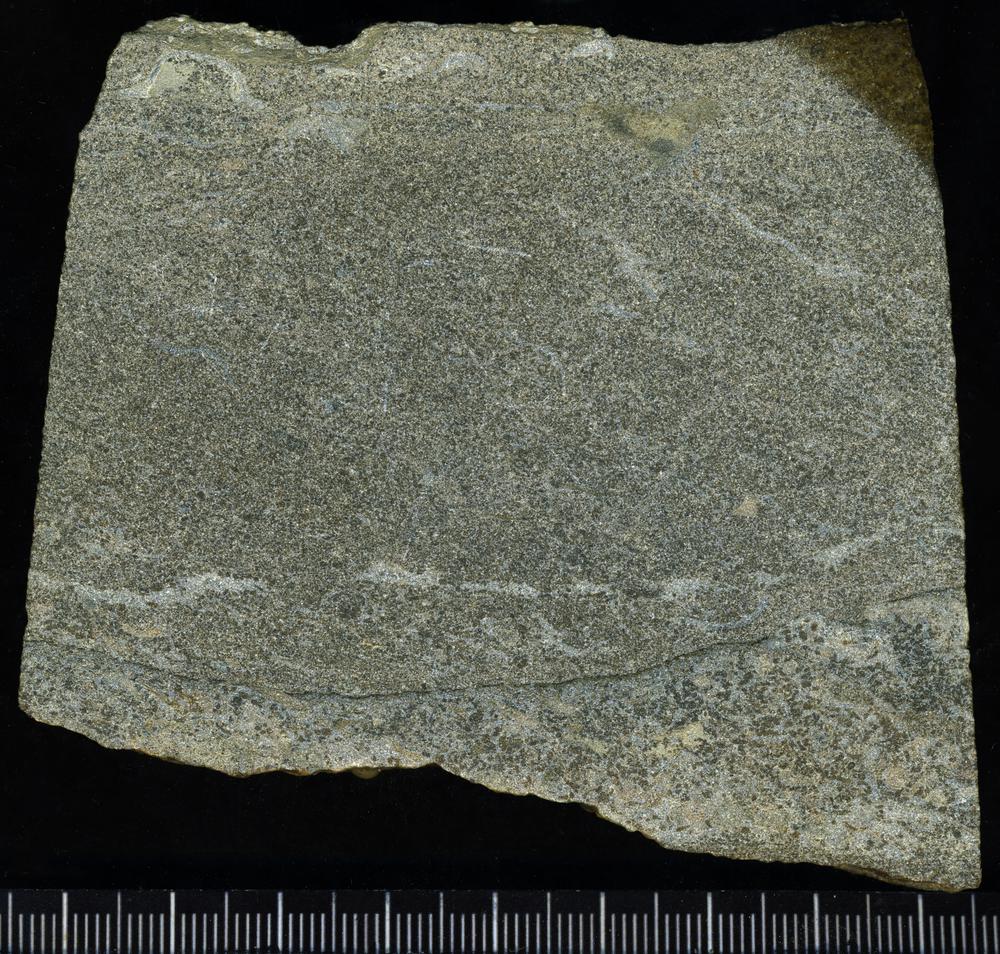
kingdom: Plantae
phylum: Tracheophyta
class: Pinopsida
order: Pinales
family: Cupressaceae
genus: Platycladus
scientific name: Platycladus
